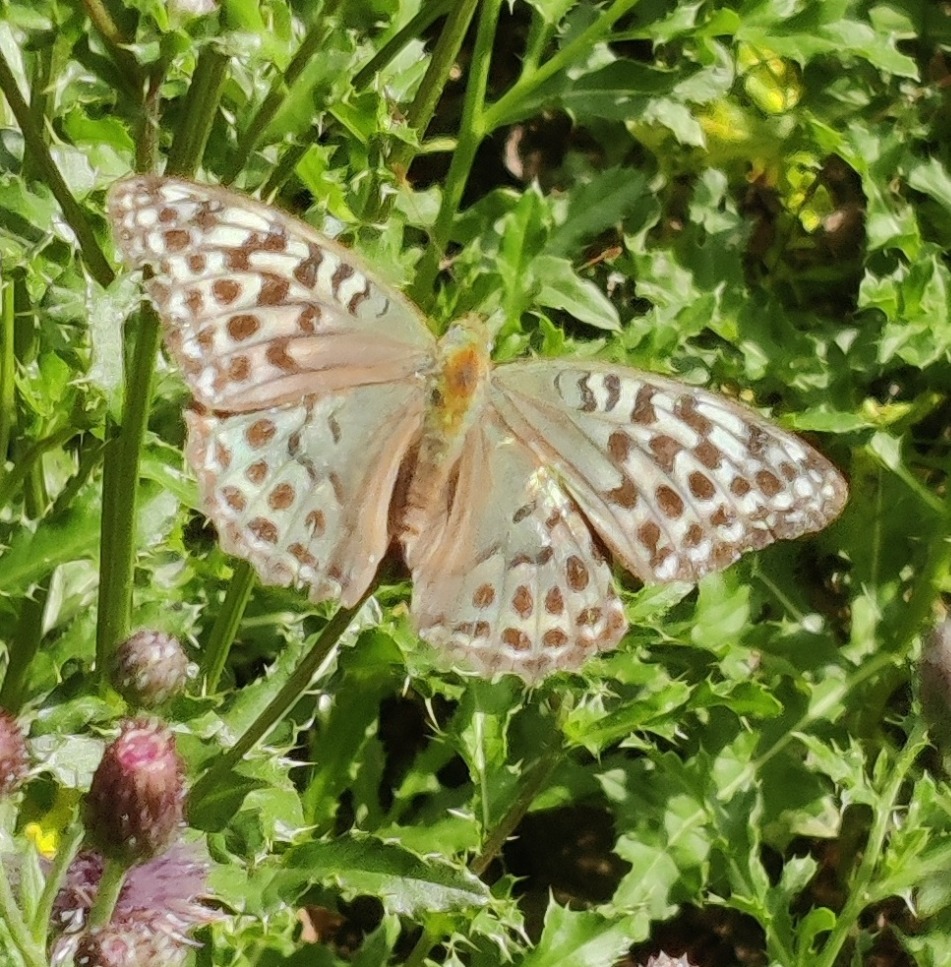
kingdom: Animalia
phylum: Arthropoda
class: Insecta
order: Lepidoptera
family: Nymphalidae
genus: Argynnis
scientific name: Argynnis paphia
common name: Kejserkåbe
